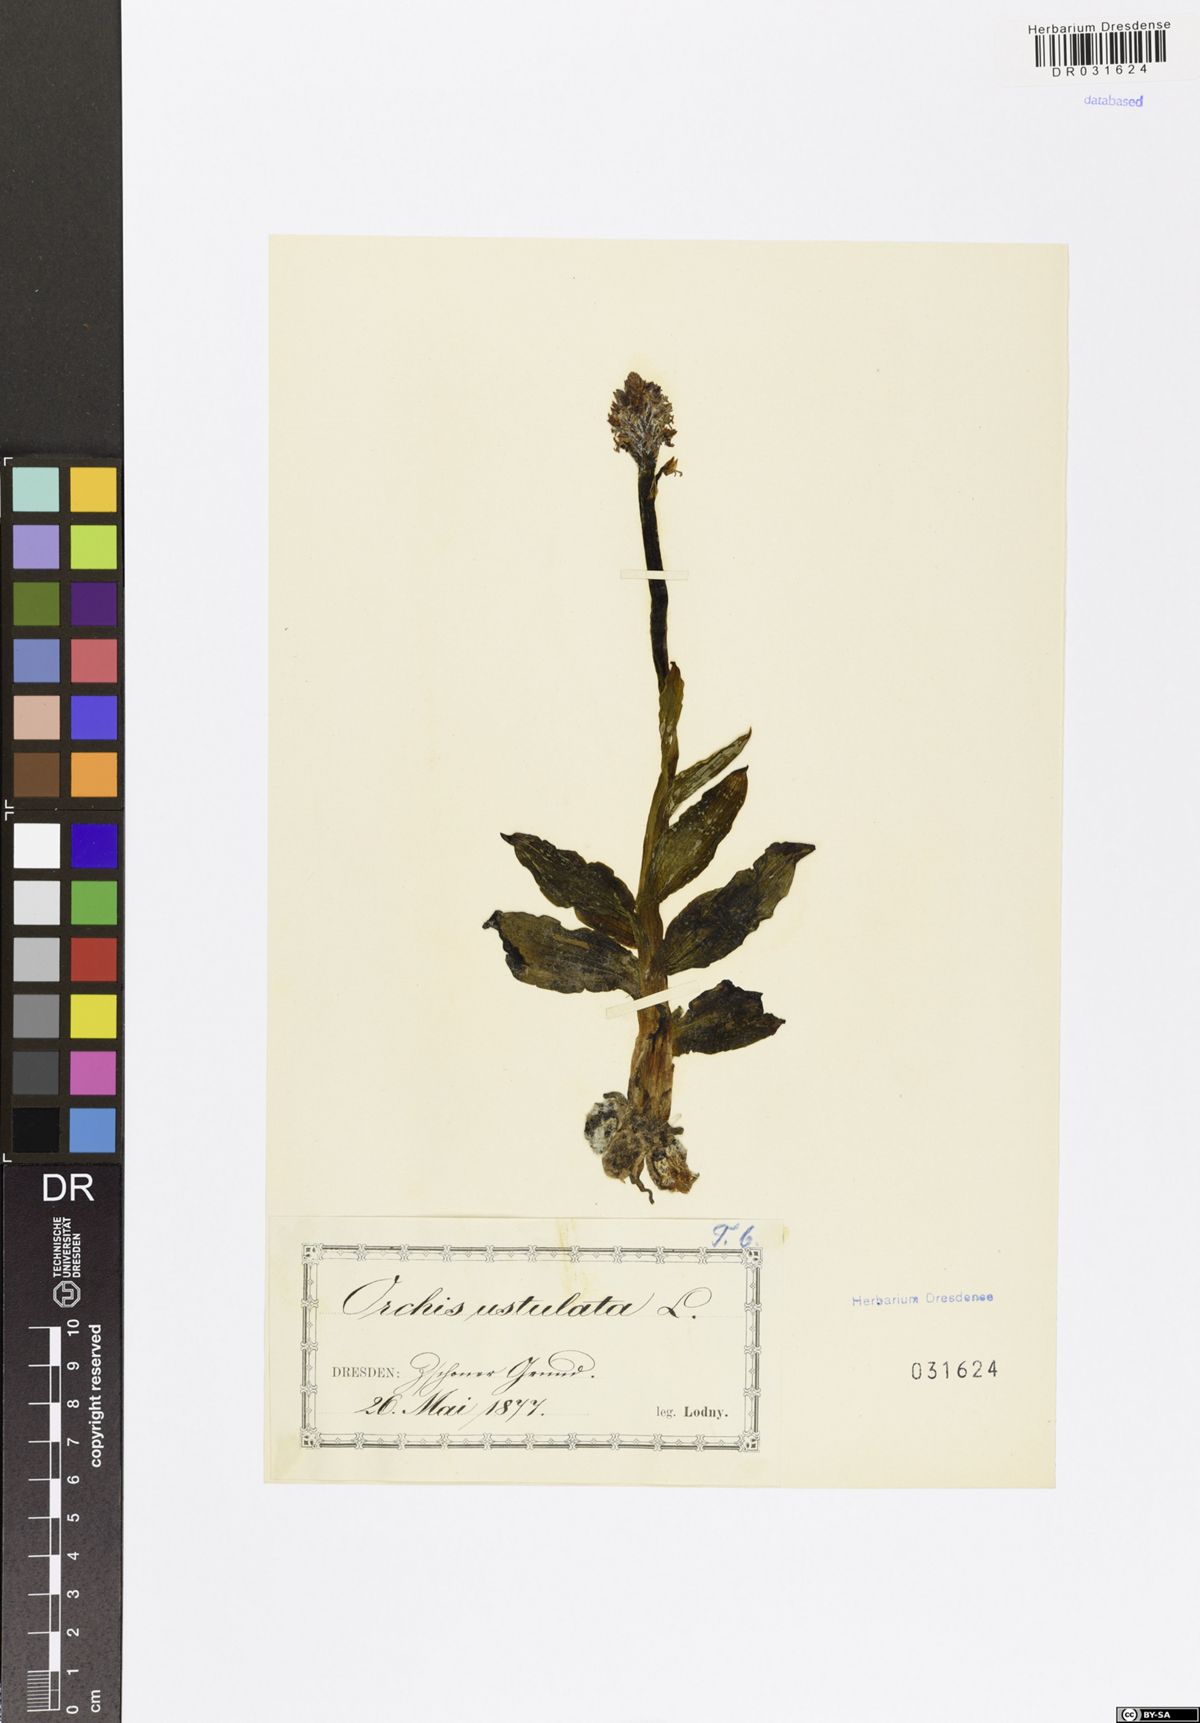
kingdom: Plantae
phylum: Tracheophyta
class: Liliopsida
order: Asparagales
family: Orchidaceae
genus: Neotinea
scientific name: Neotinea ustulata
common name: Burnt orchid
